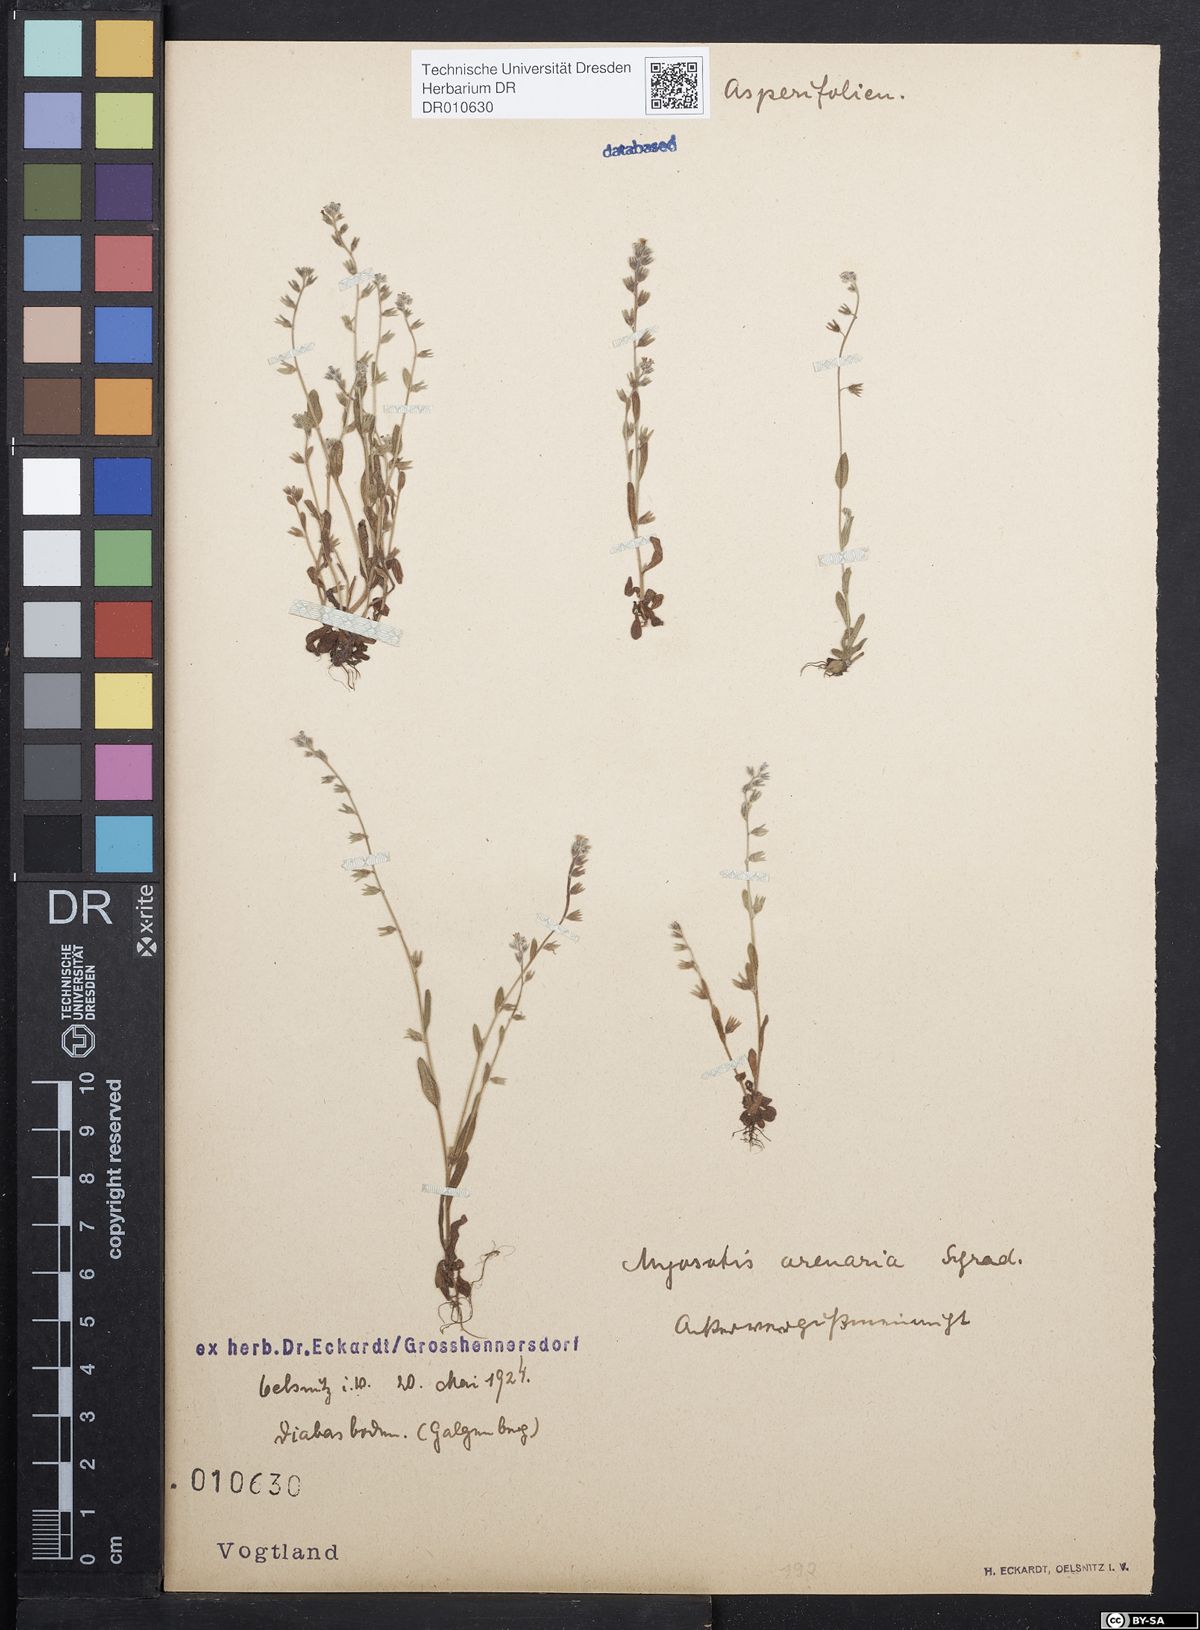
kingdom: Plantae
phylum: Tracheophyta
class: Magnoliopsida
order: Boraginales
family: Boraginaceae
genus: Myosotis
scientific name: Myosotis stricta
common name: Strict forget-me-not
